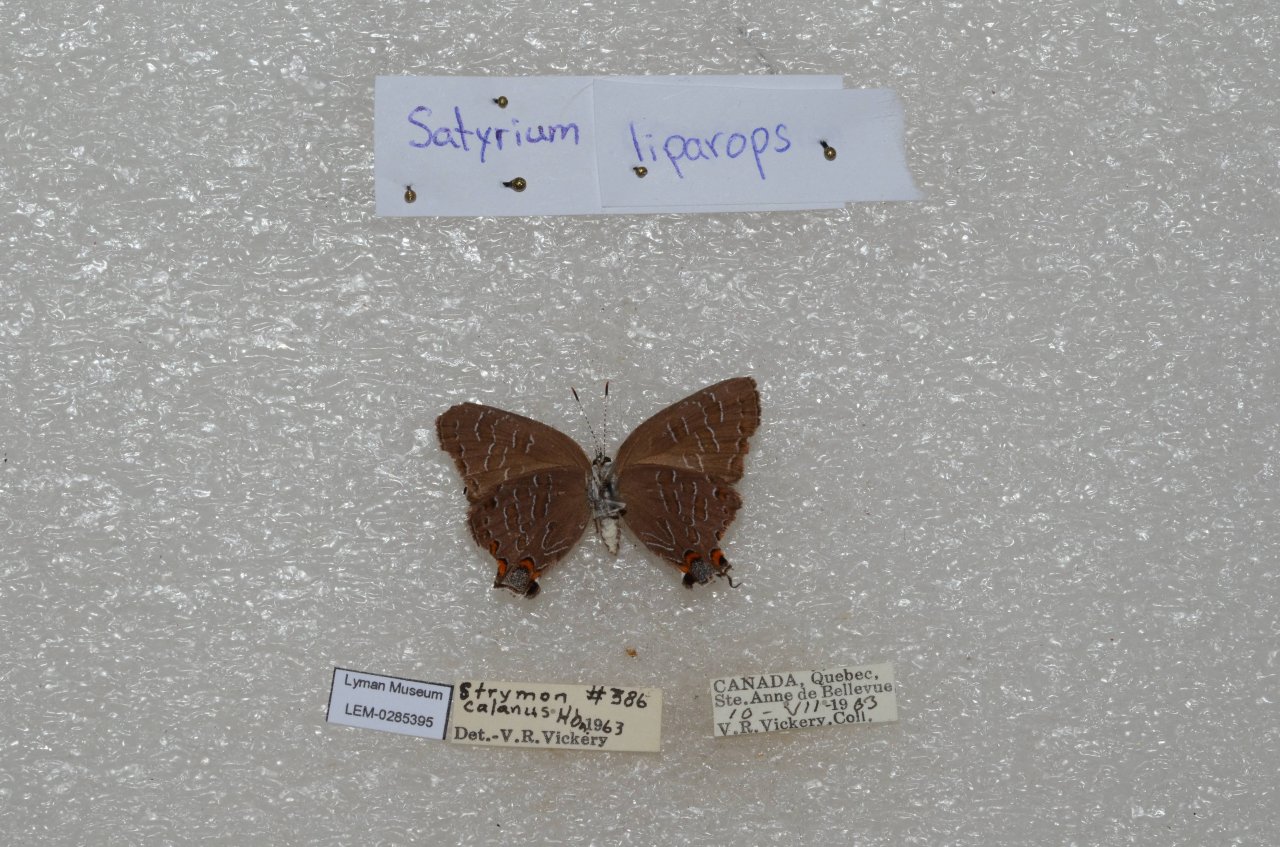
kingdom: Animalia
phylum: Arthropoda
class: Insecta
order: Lepidoptera
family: Lycaenidae
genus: Satyrium
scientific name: Satyrium liparops
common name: Striped Hairstreak
